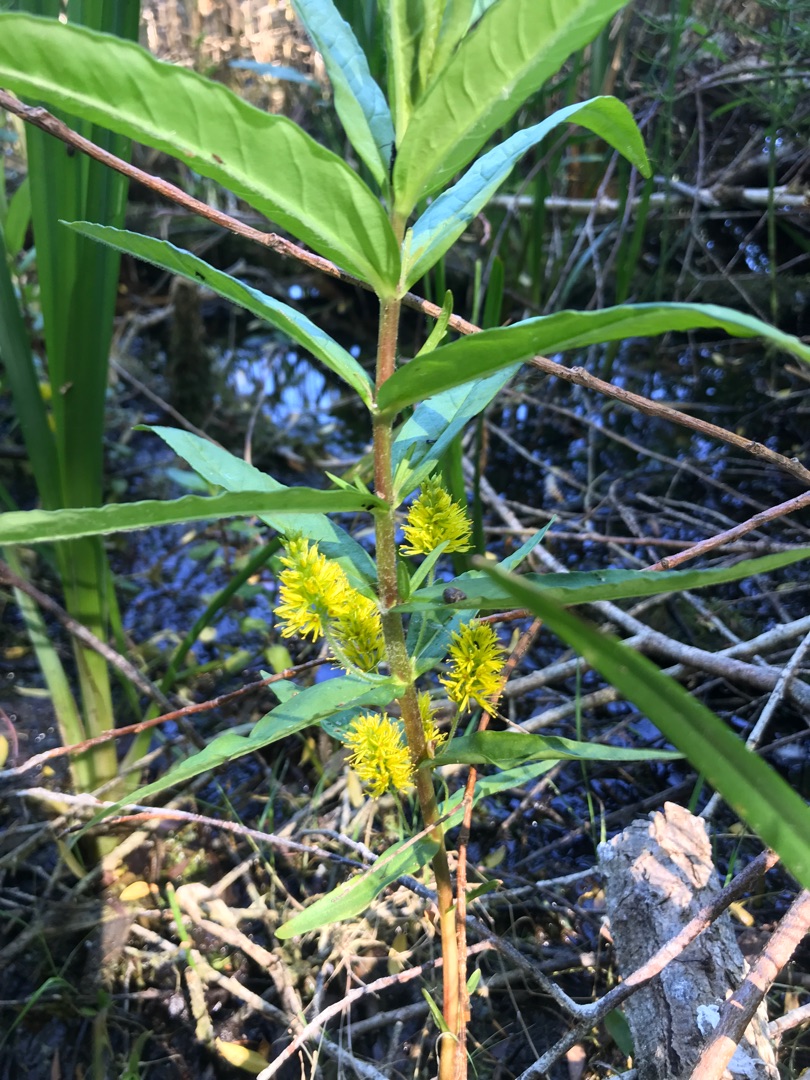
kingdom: Plantae
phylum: Tracheophyta
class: Magnoliopsida
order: Ericales
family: Primulaceae
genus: Lysimachia
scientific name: Lysimachia thyrsiflora
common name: Dusk-fredløs
